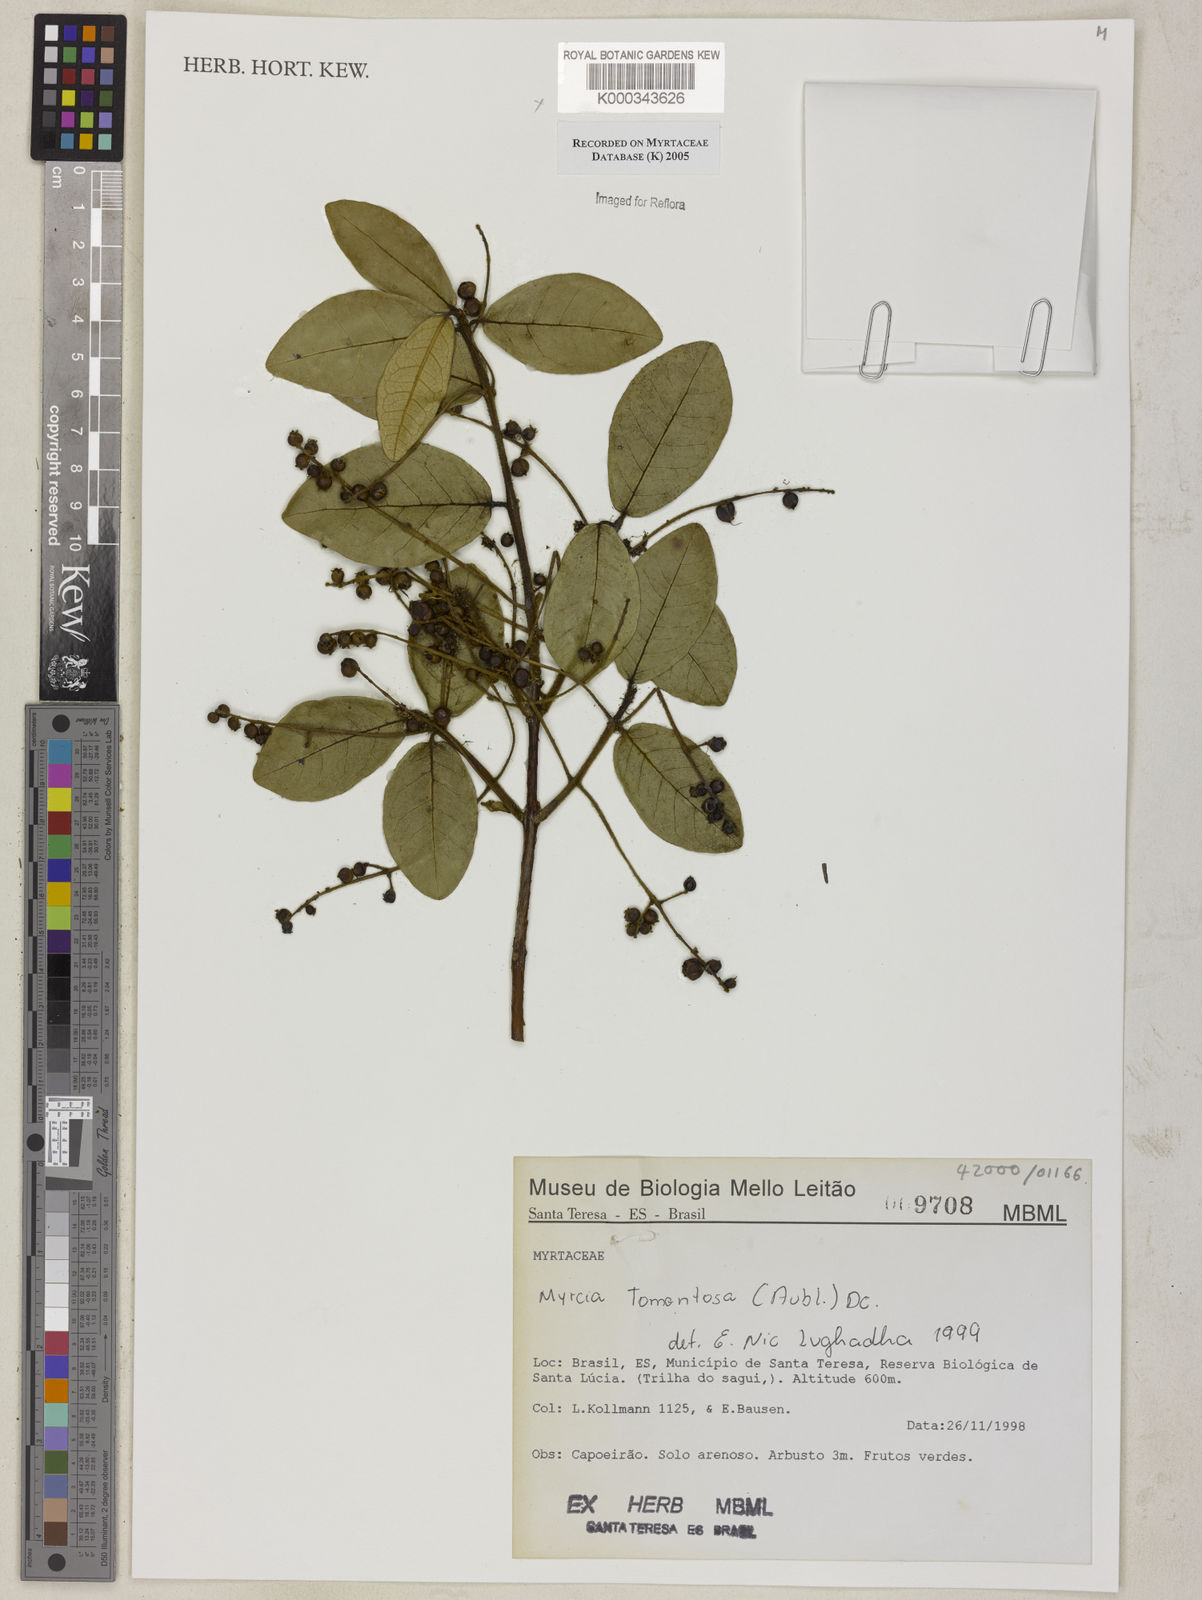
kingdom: Plantae
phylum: Tracheophyta
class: Magnoliopsida
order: Myrtales
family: Myrtaceae
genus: Myrcia
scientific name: Myrcia tomentosa
